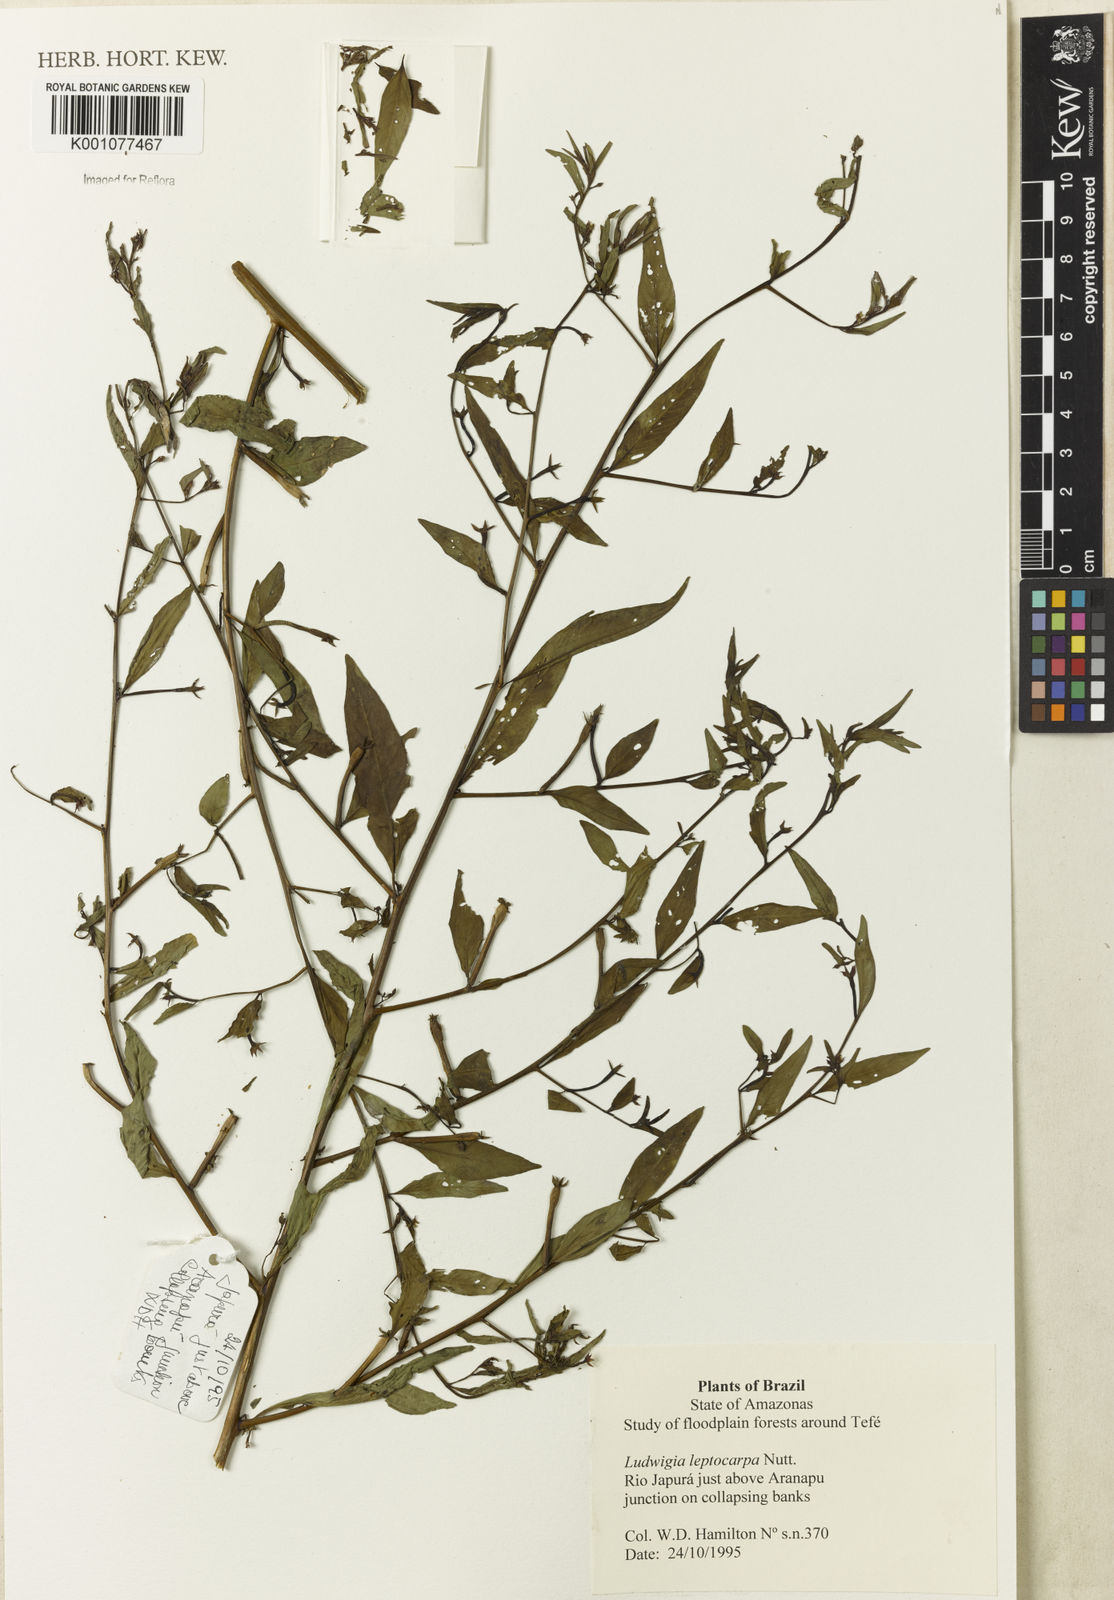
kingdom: Plantae
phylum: Tracheophyta
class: Magnoliopsida
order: Myrtales
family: Onagraceae
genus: Ludwigia
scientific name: Ludwigia leptocarpa
